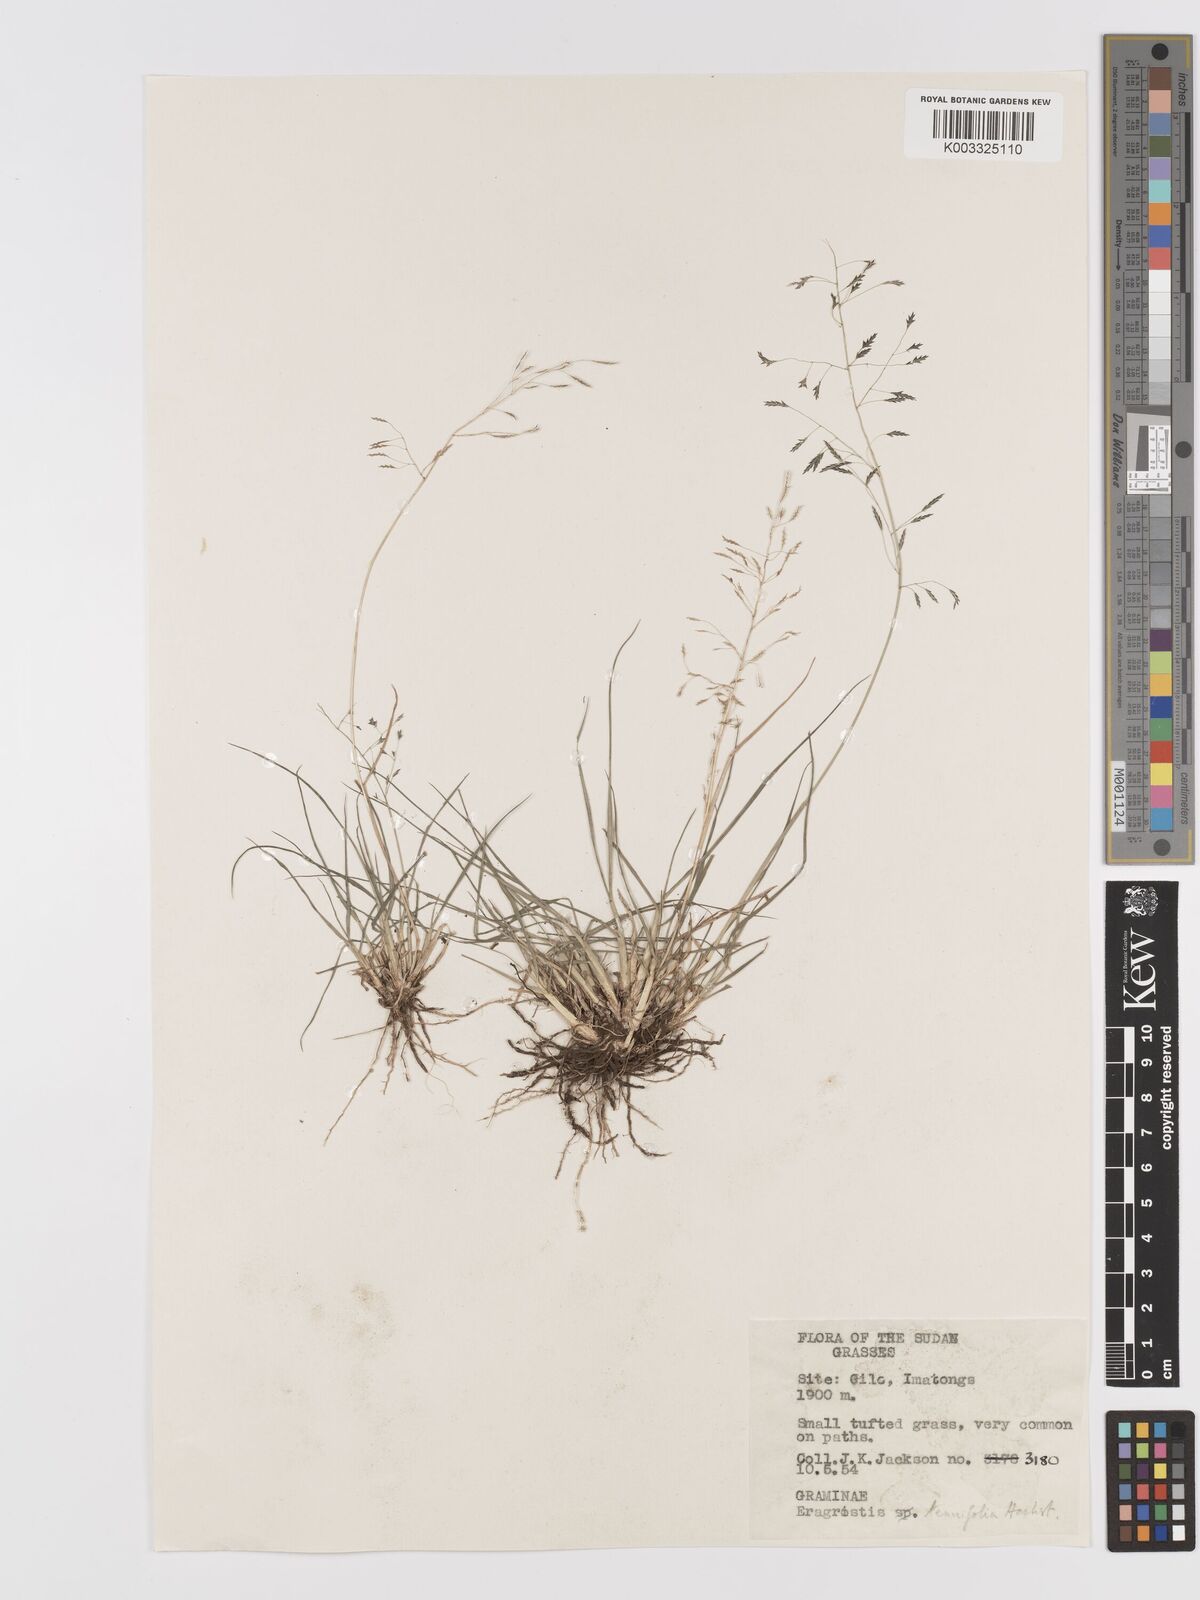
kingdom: Plantae
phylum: Tracheophyta
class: Liliopsida
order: Poales
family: Poaceae
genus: Eragrostis
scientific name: Eragrostis tenuifolia
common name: Elastic grass
